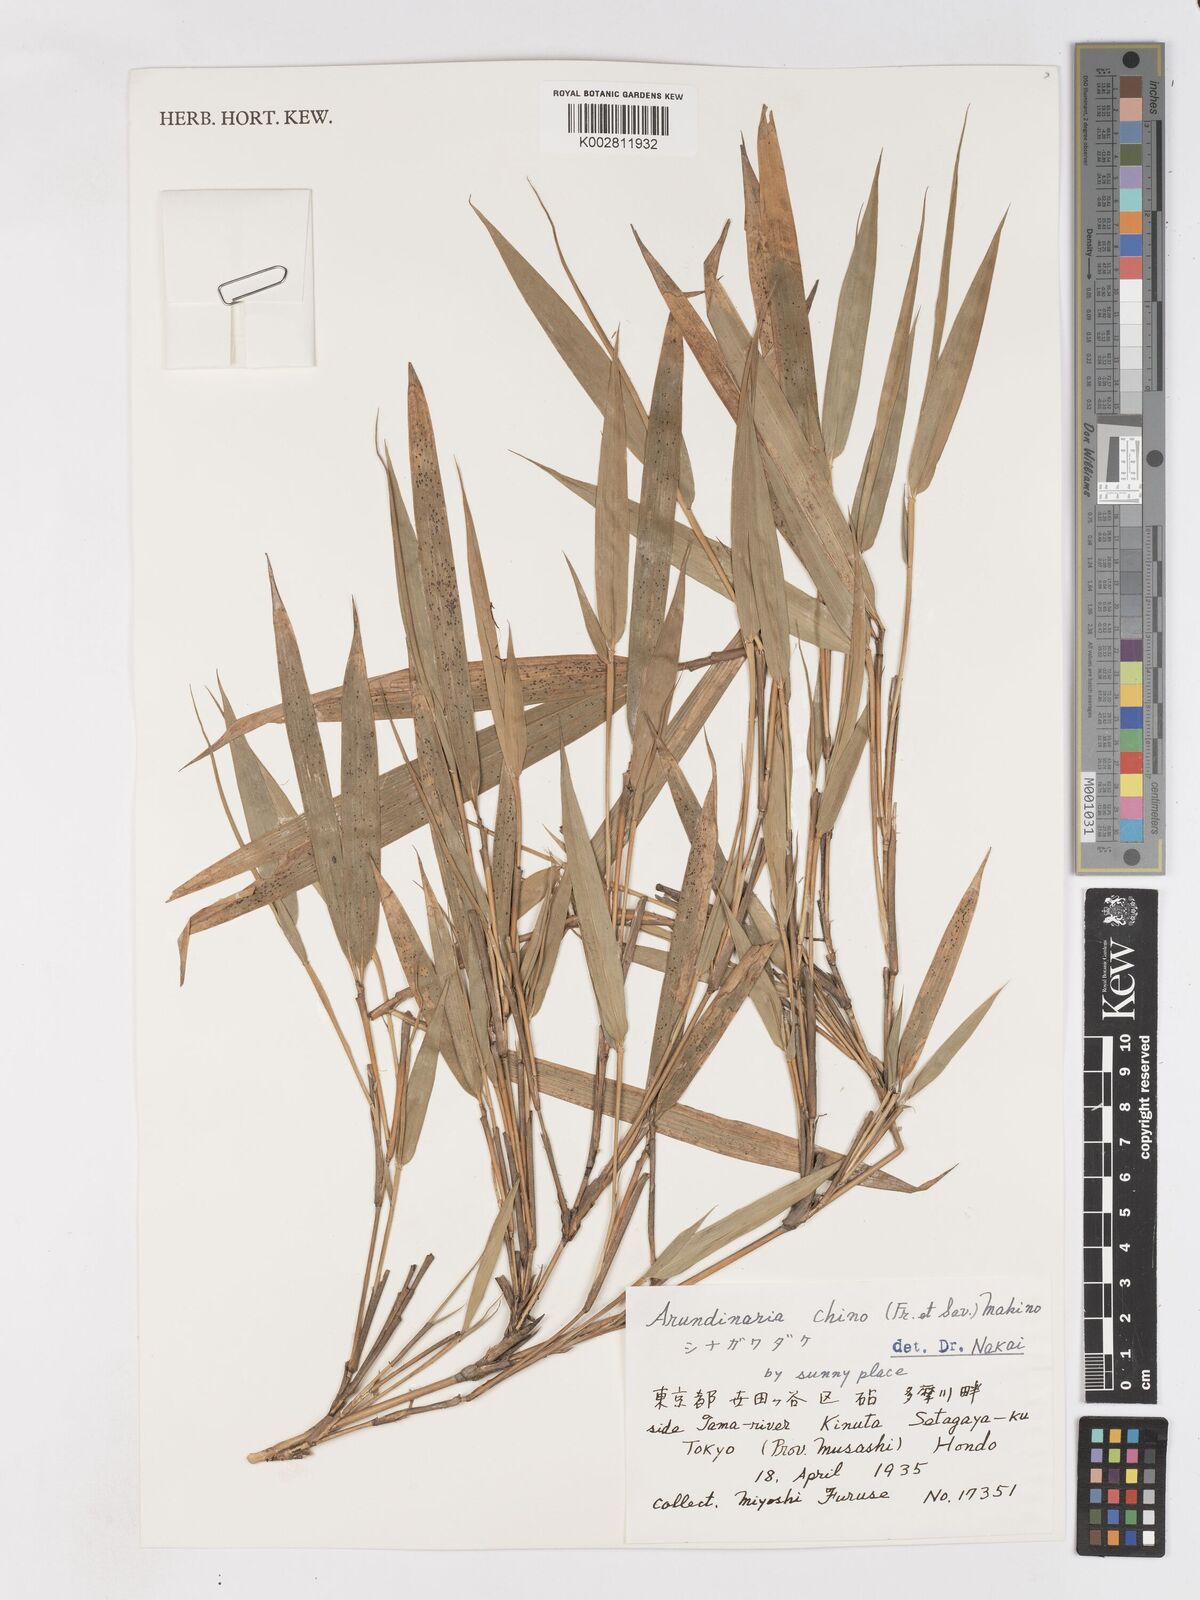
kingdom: Plantae
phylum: Tracheophyta
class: Liliopsida
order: Poales
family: Poaceae
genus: Pleioblastus
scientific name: Pleioblastus argenteostriatus
